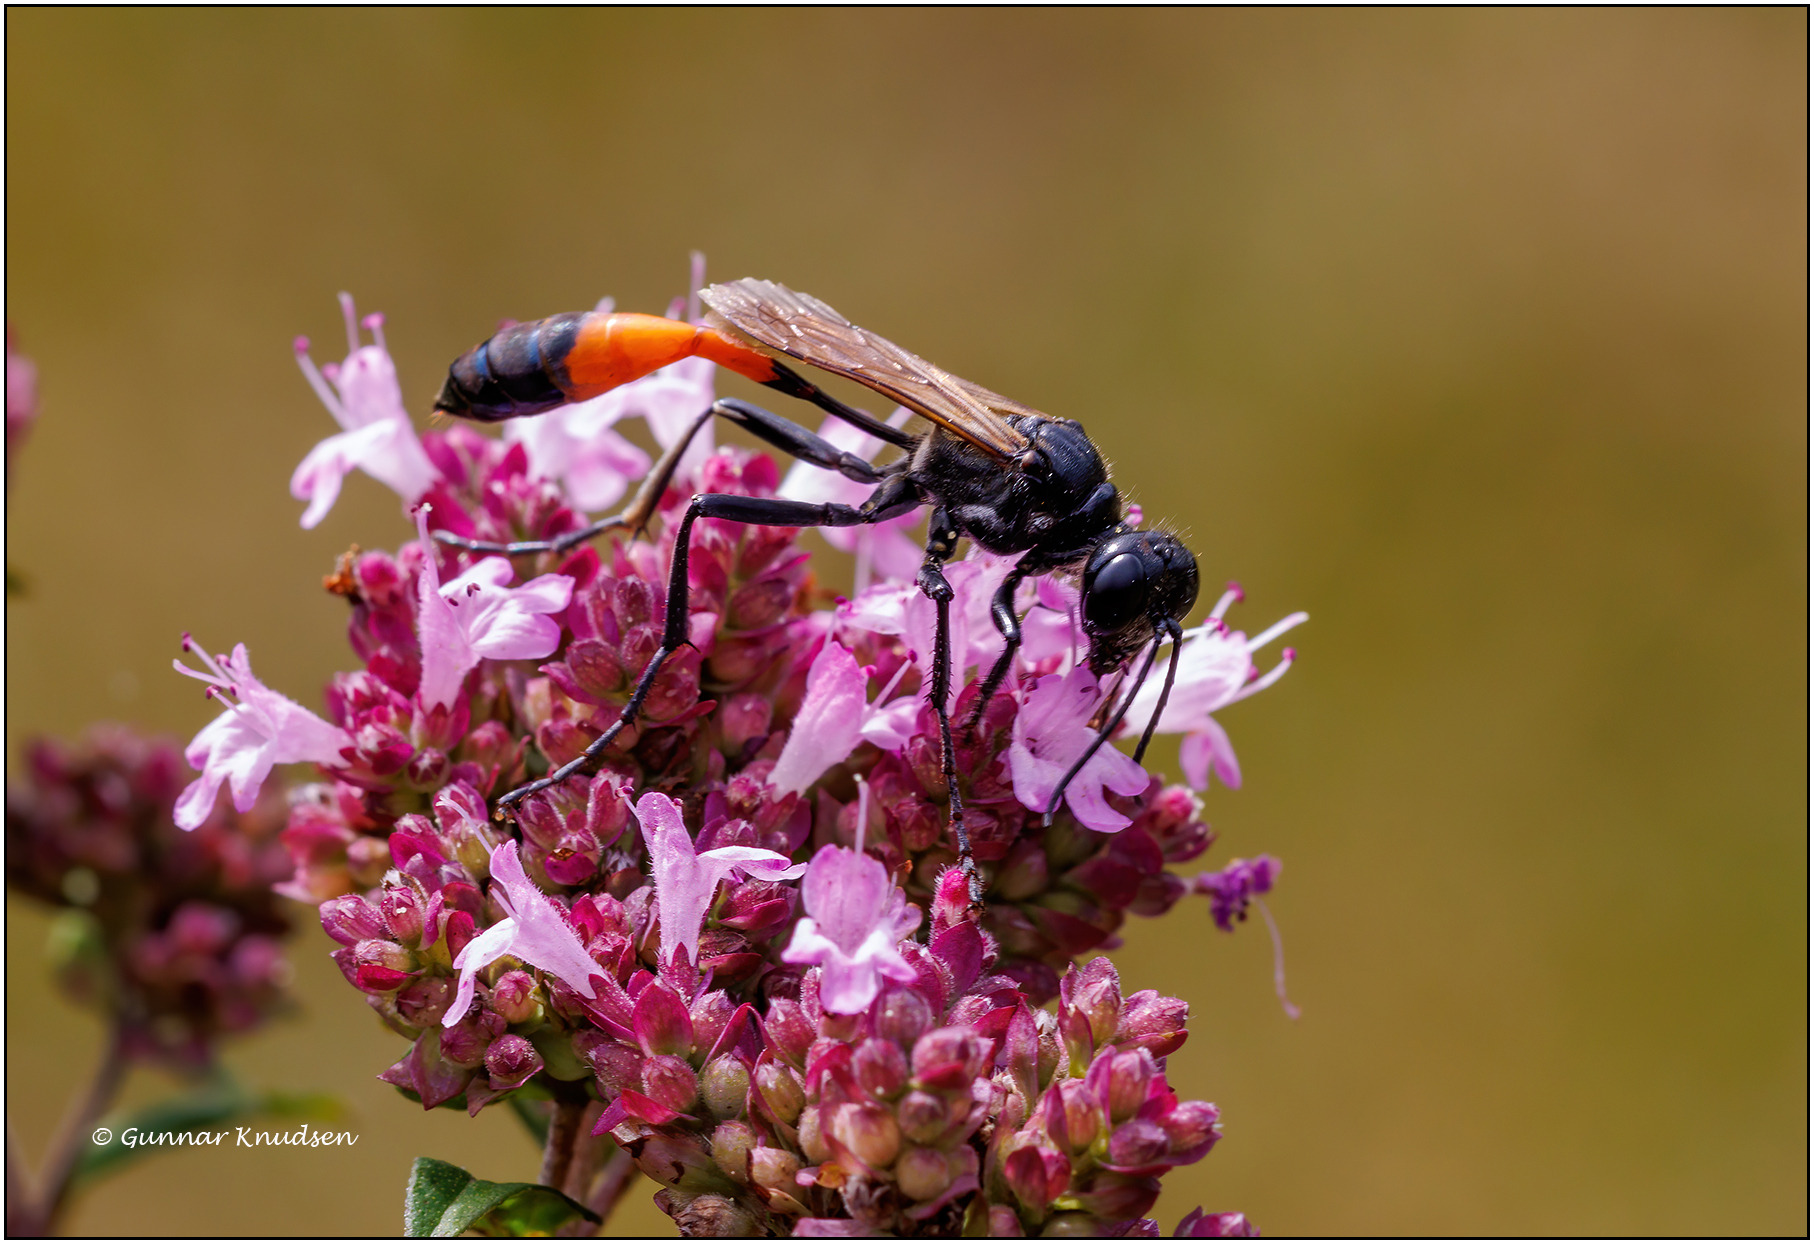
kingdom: Animalia
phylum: Arthropoda
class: Insecta
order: Hymenoptera
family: Sphecidae
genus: Ammophila
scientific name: Ammophila sabulosa
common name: Almindelig sandhveps
